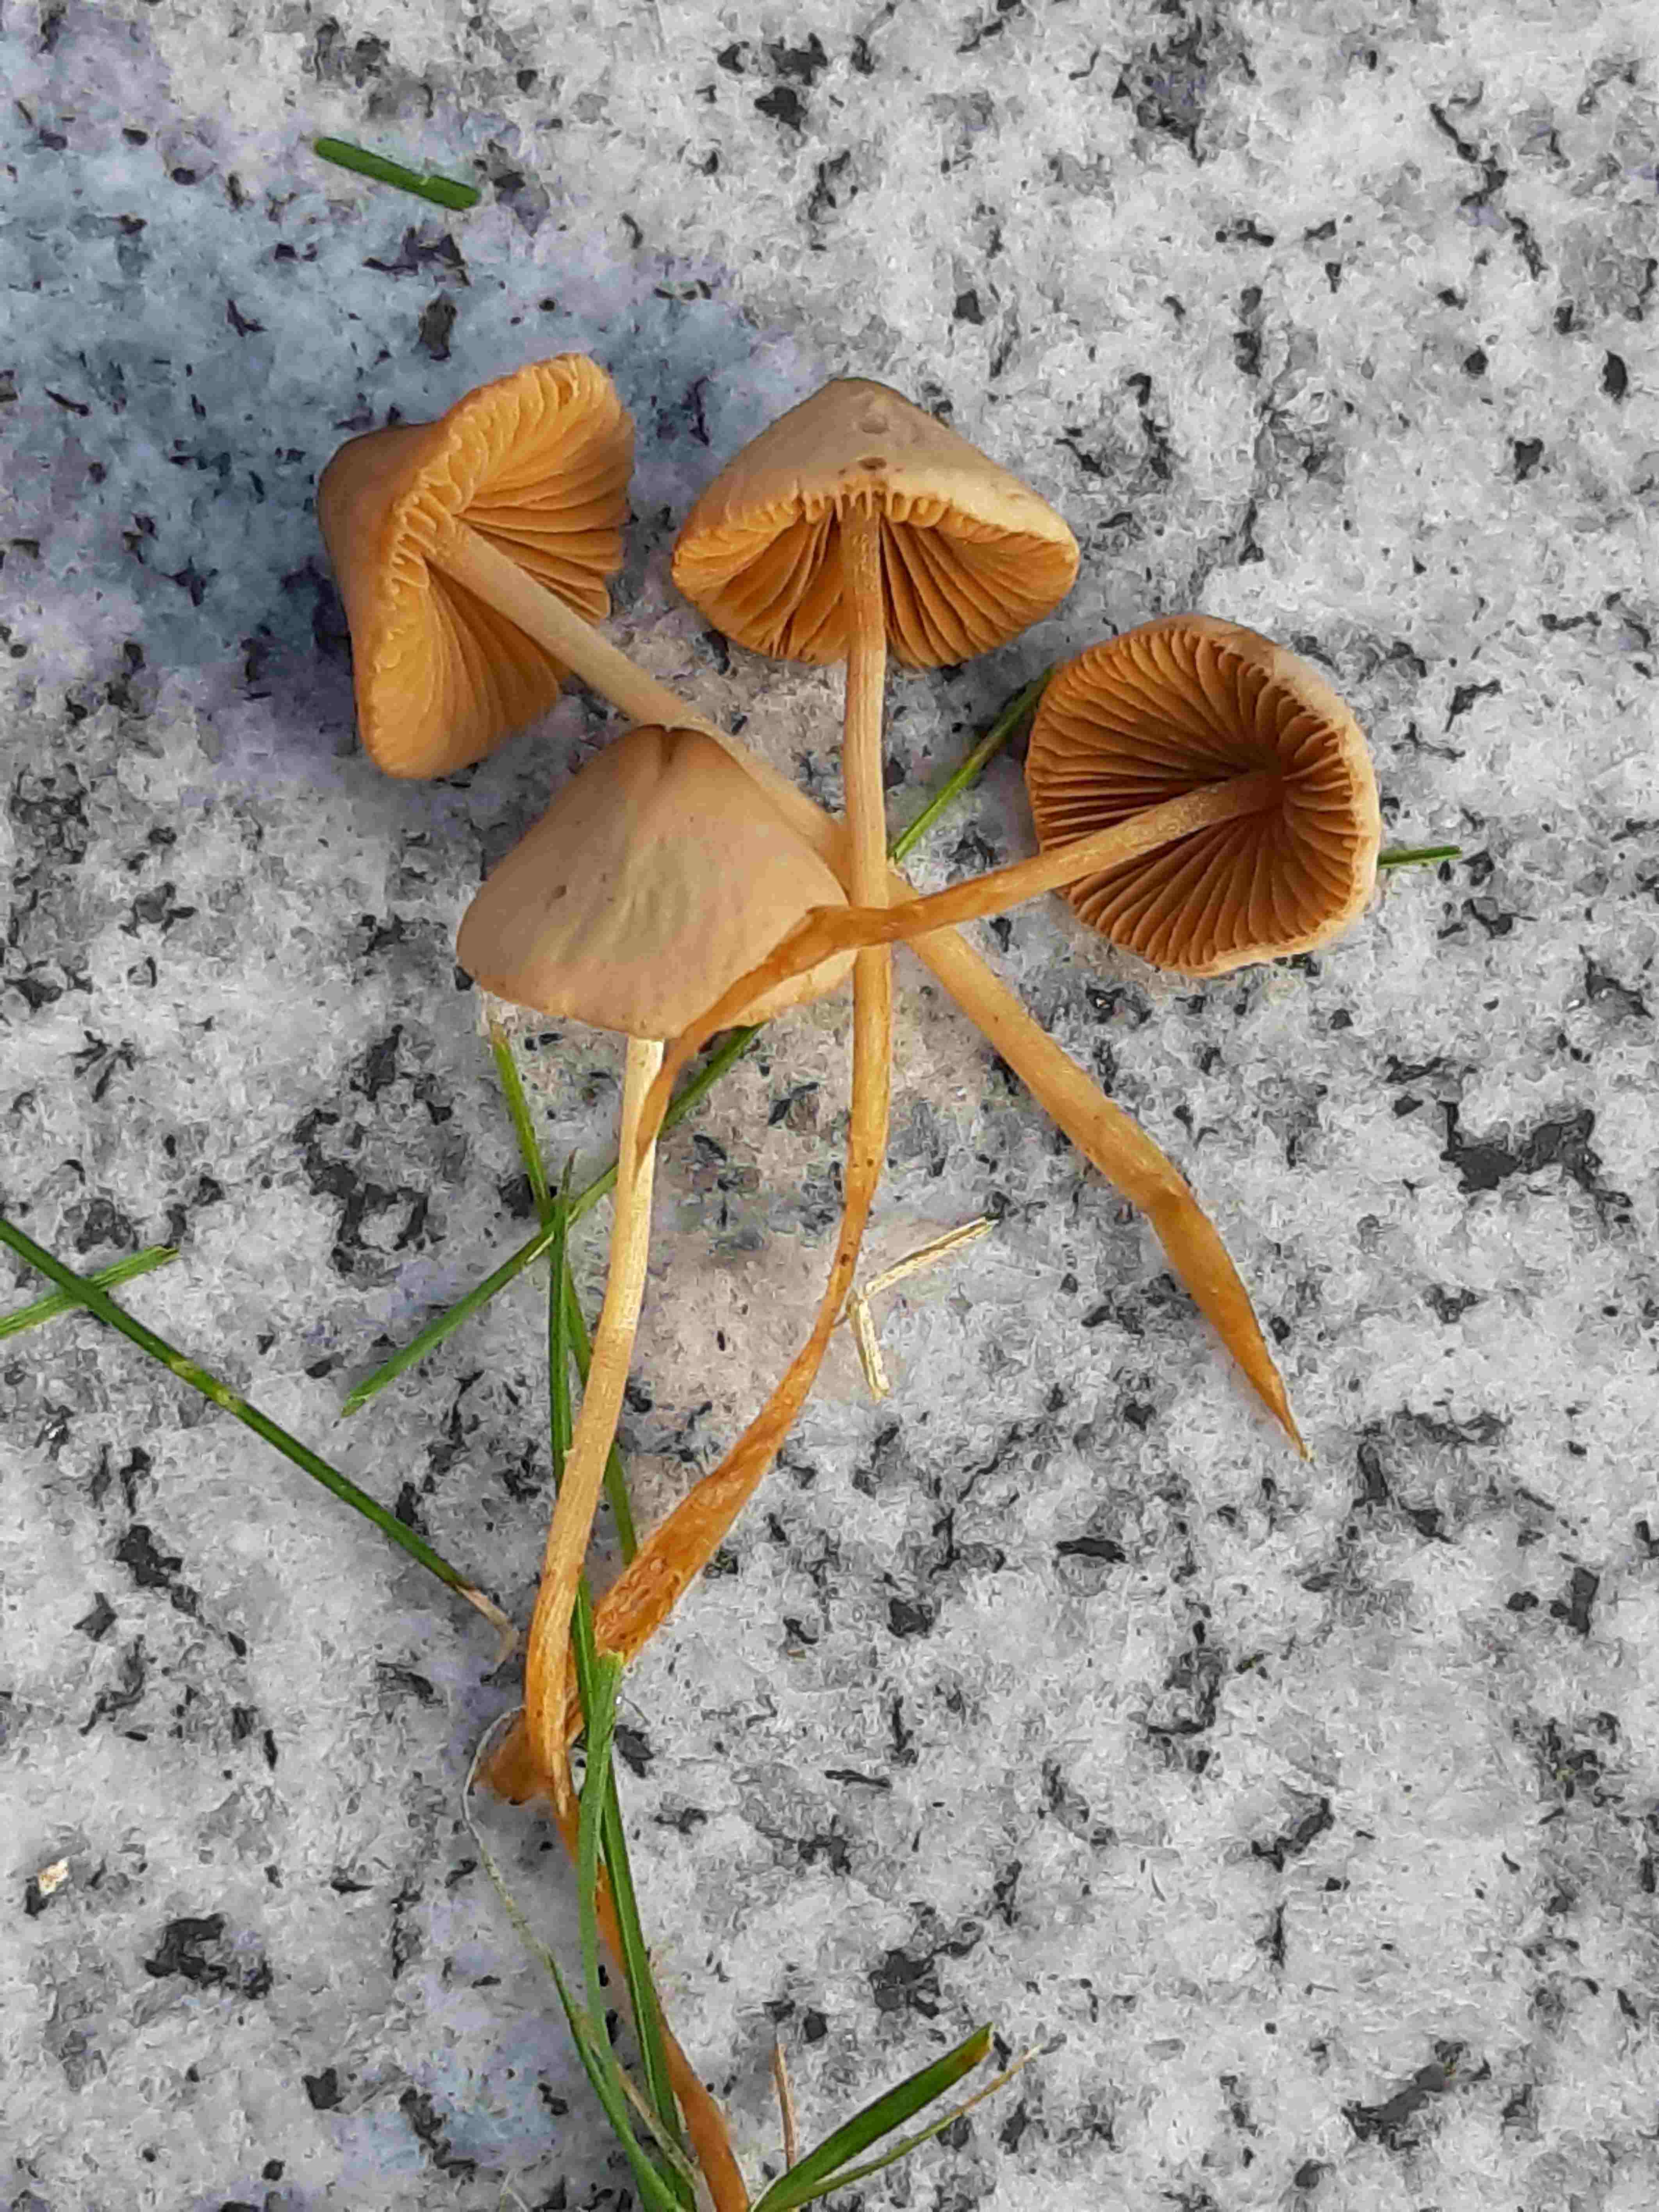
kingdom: Fungi
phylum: Basidiomycota
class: Agaricomycetes
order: Agaricales
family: Bolbitiaceae
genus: Conocybe
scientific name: Conocybe
